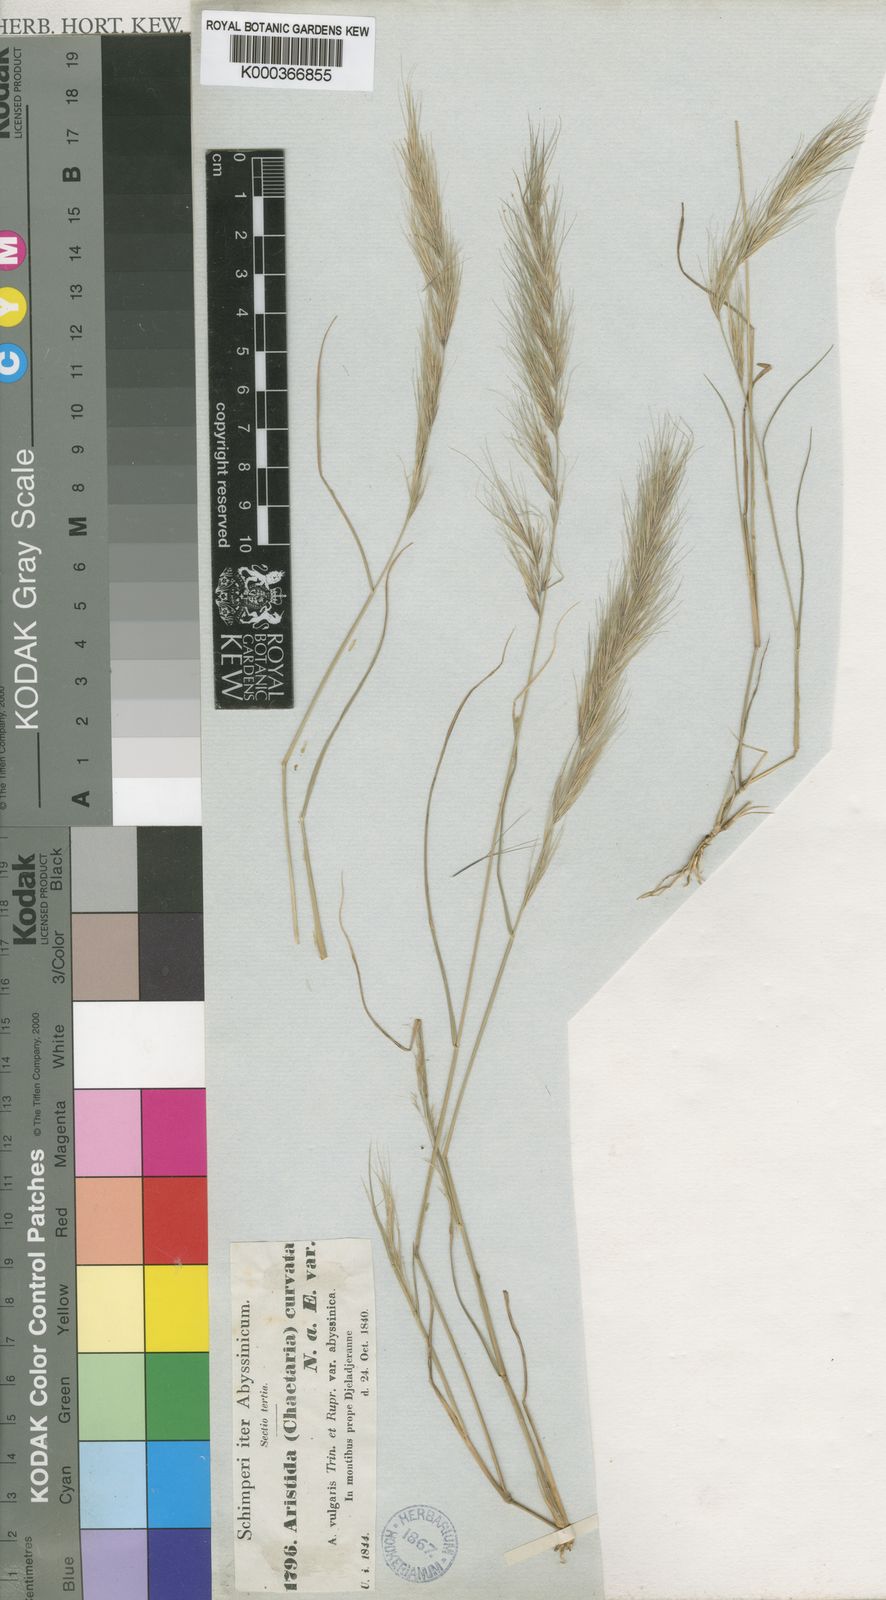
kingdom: Plantae
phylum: Tracheophyta
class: Liliopsida
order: Poales
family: Poaceae
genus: Aristida
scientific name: Aristida adscensionis
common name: Sixweeks threeawn
